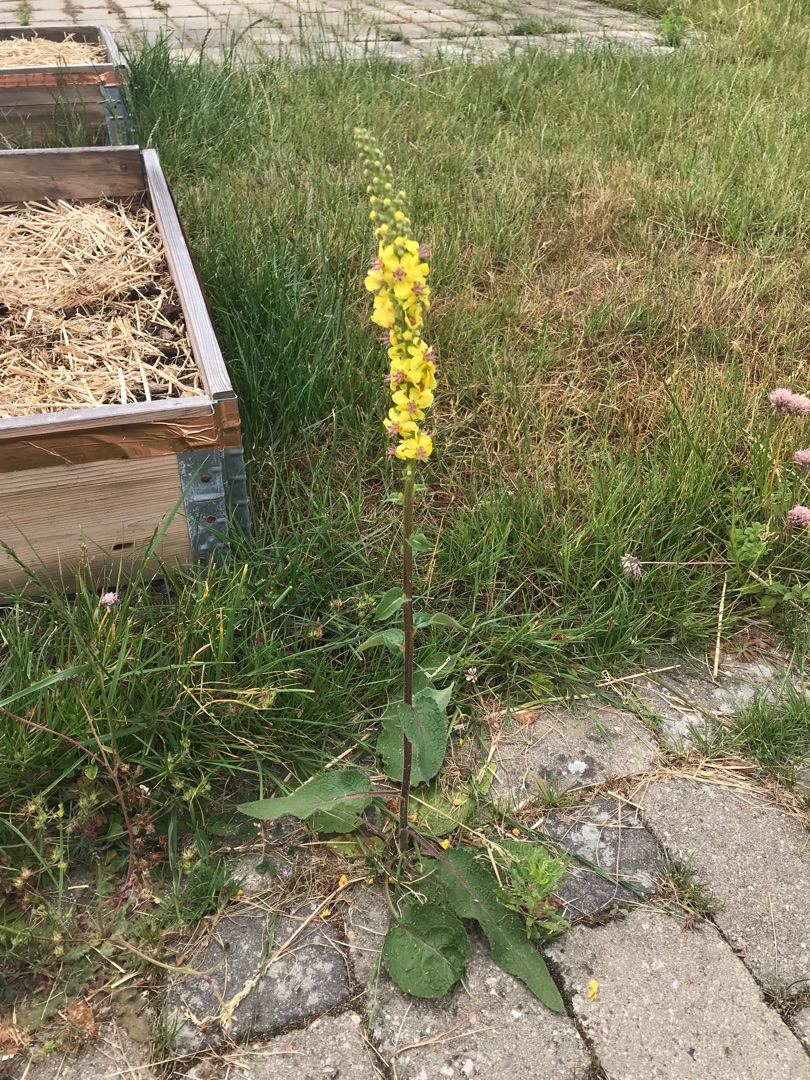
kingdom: Plantae
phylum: Tracheophyta
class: Magnoliopsida
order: Lamiales
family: Scrophulariaceae
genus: Verbascum
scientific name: Verbascum nigrum
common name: Mørk kongelys
